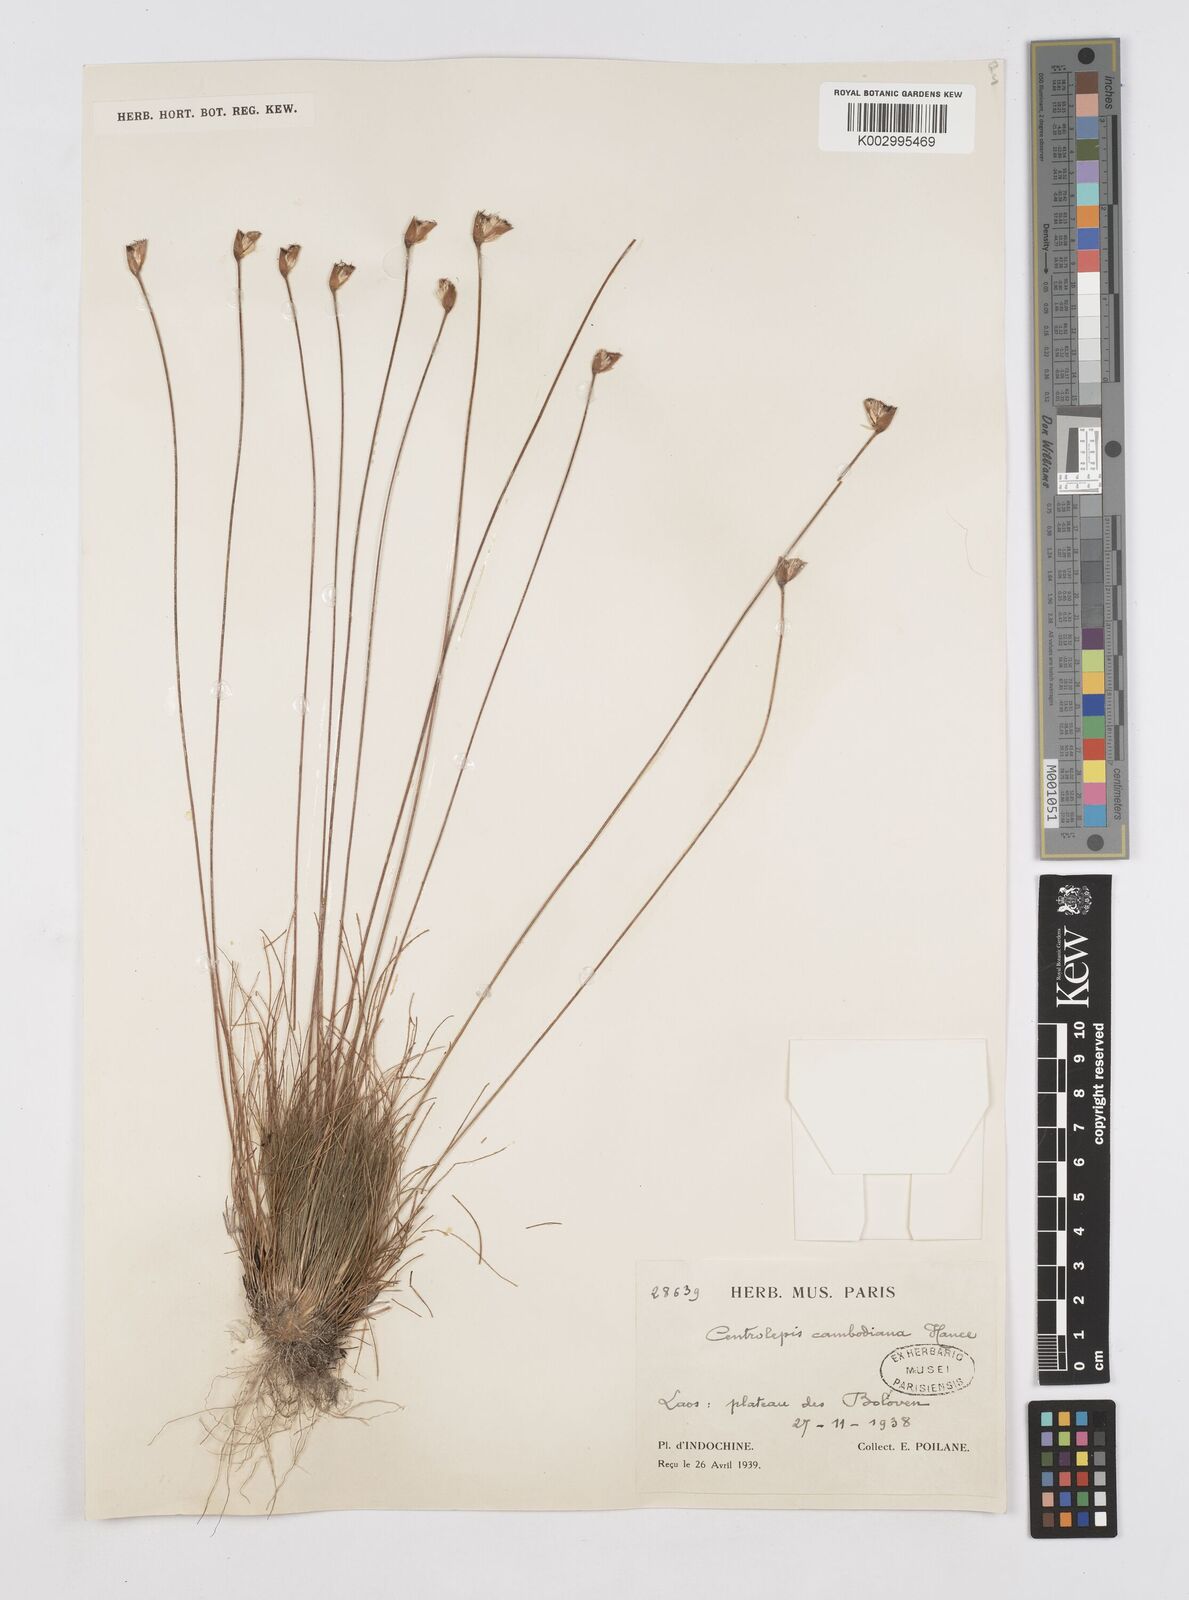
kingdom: Plantae
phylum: Tracheophyta
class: Liliopsida
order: Poales
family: Restionaceae
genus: Centrolepis
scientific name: Centrolepis cambodiana
